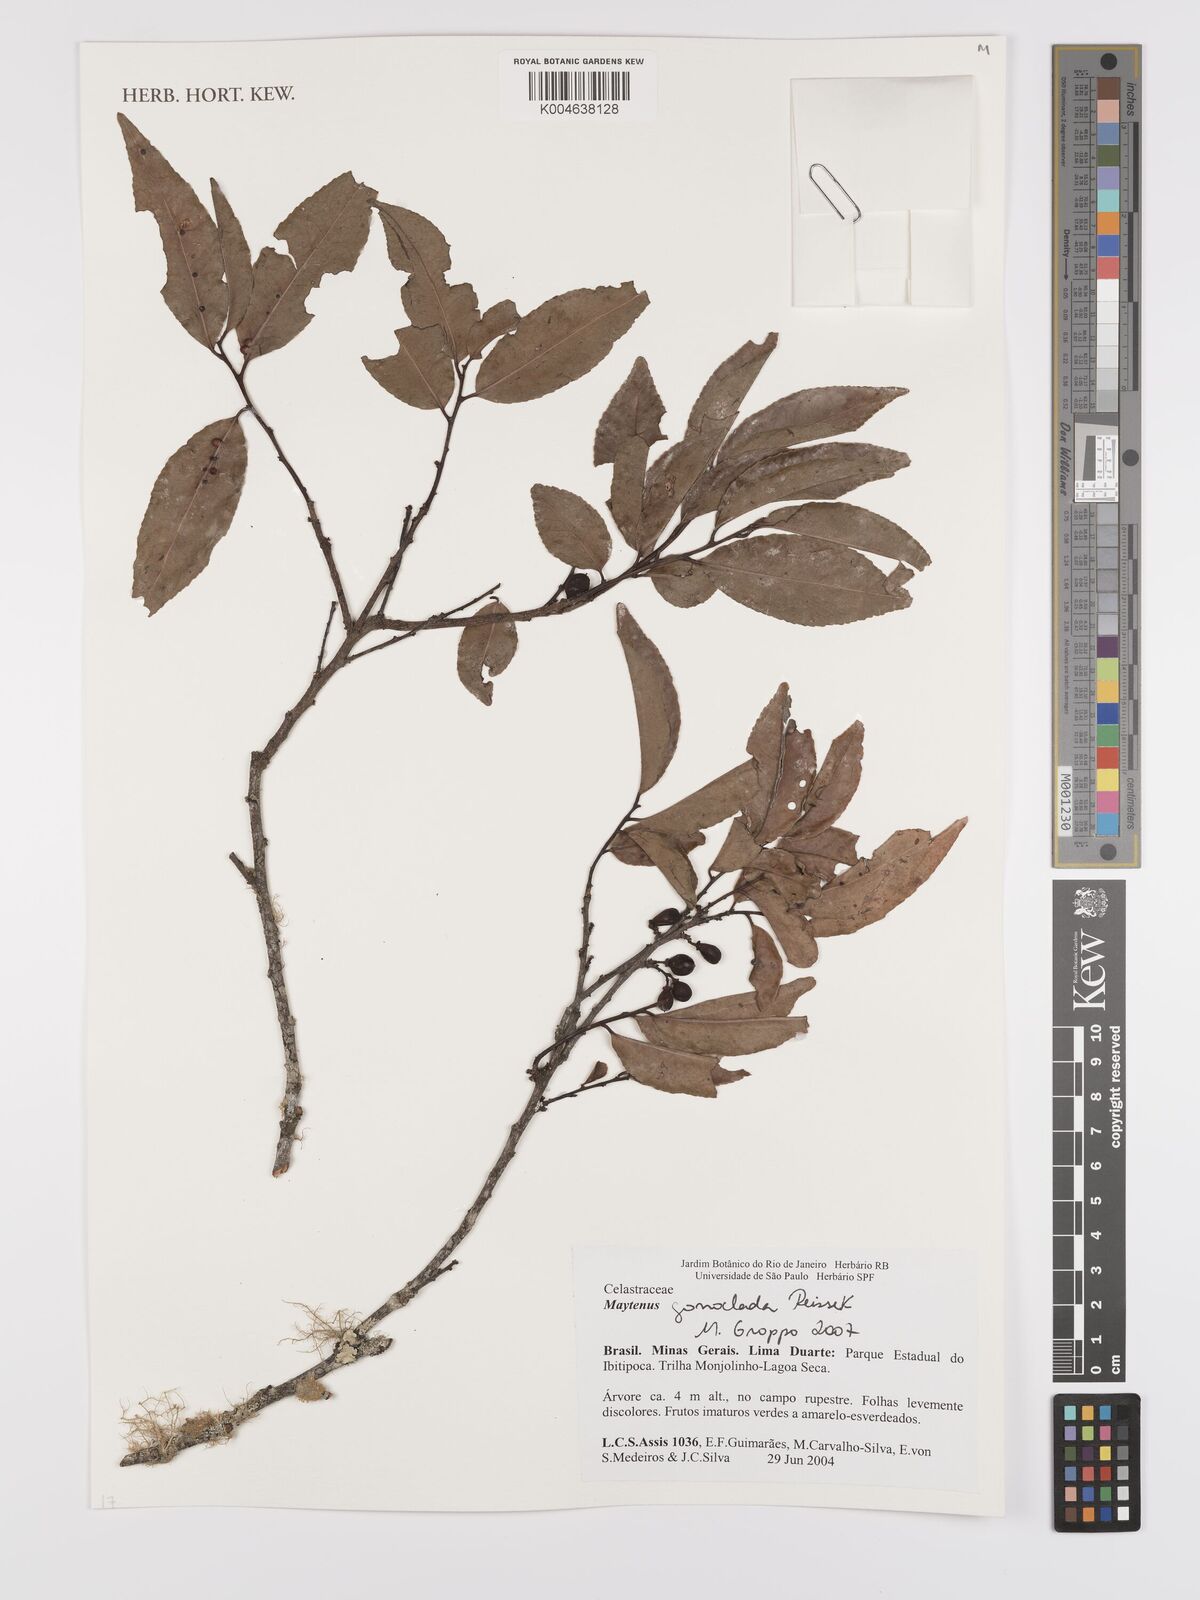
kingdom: Plantae
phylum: Tracheophyta
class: Magnoliopsida
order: Celastrales
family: Celastraceae
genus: Monteverdia
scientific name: Monteverdia gonoclada
